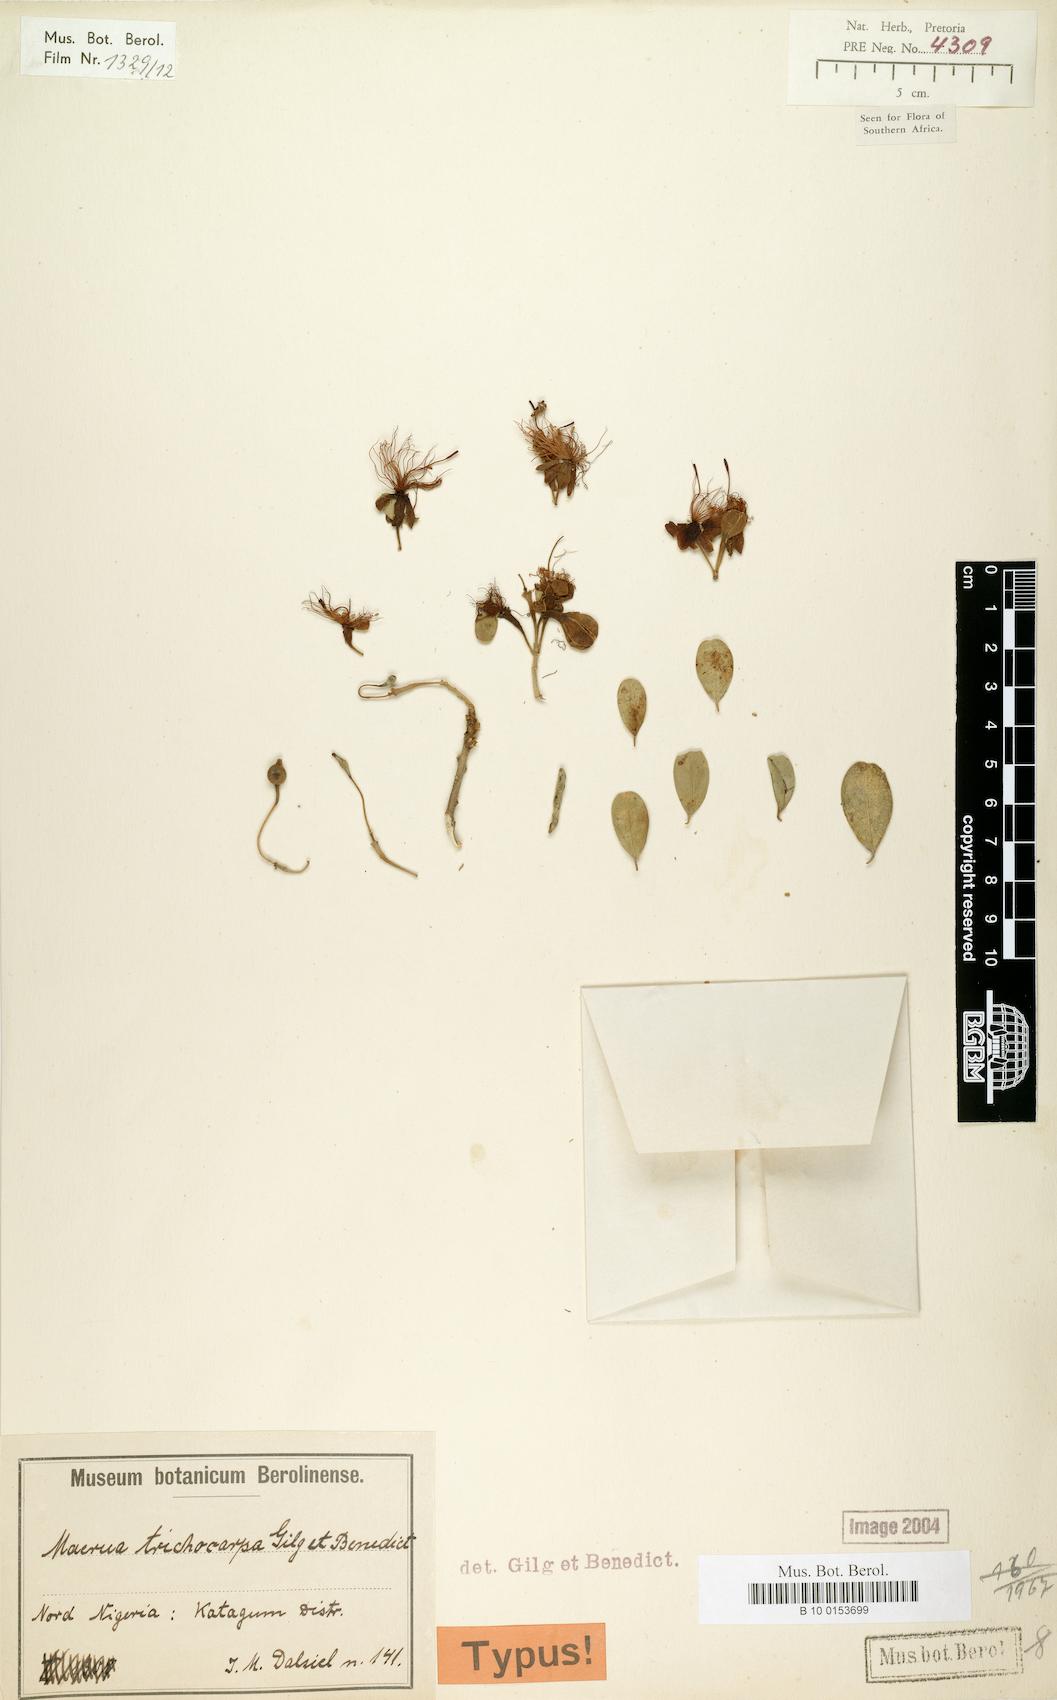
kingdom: Plantae
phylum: Tracheophyta
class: Magnoliopsida
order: Brassicales
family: Capparaceae
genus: Maerua
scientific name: Maerua triphylla
